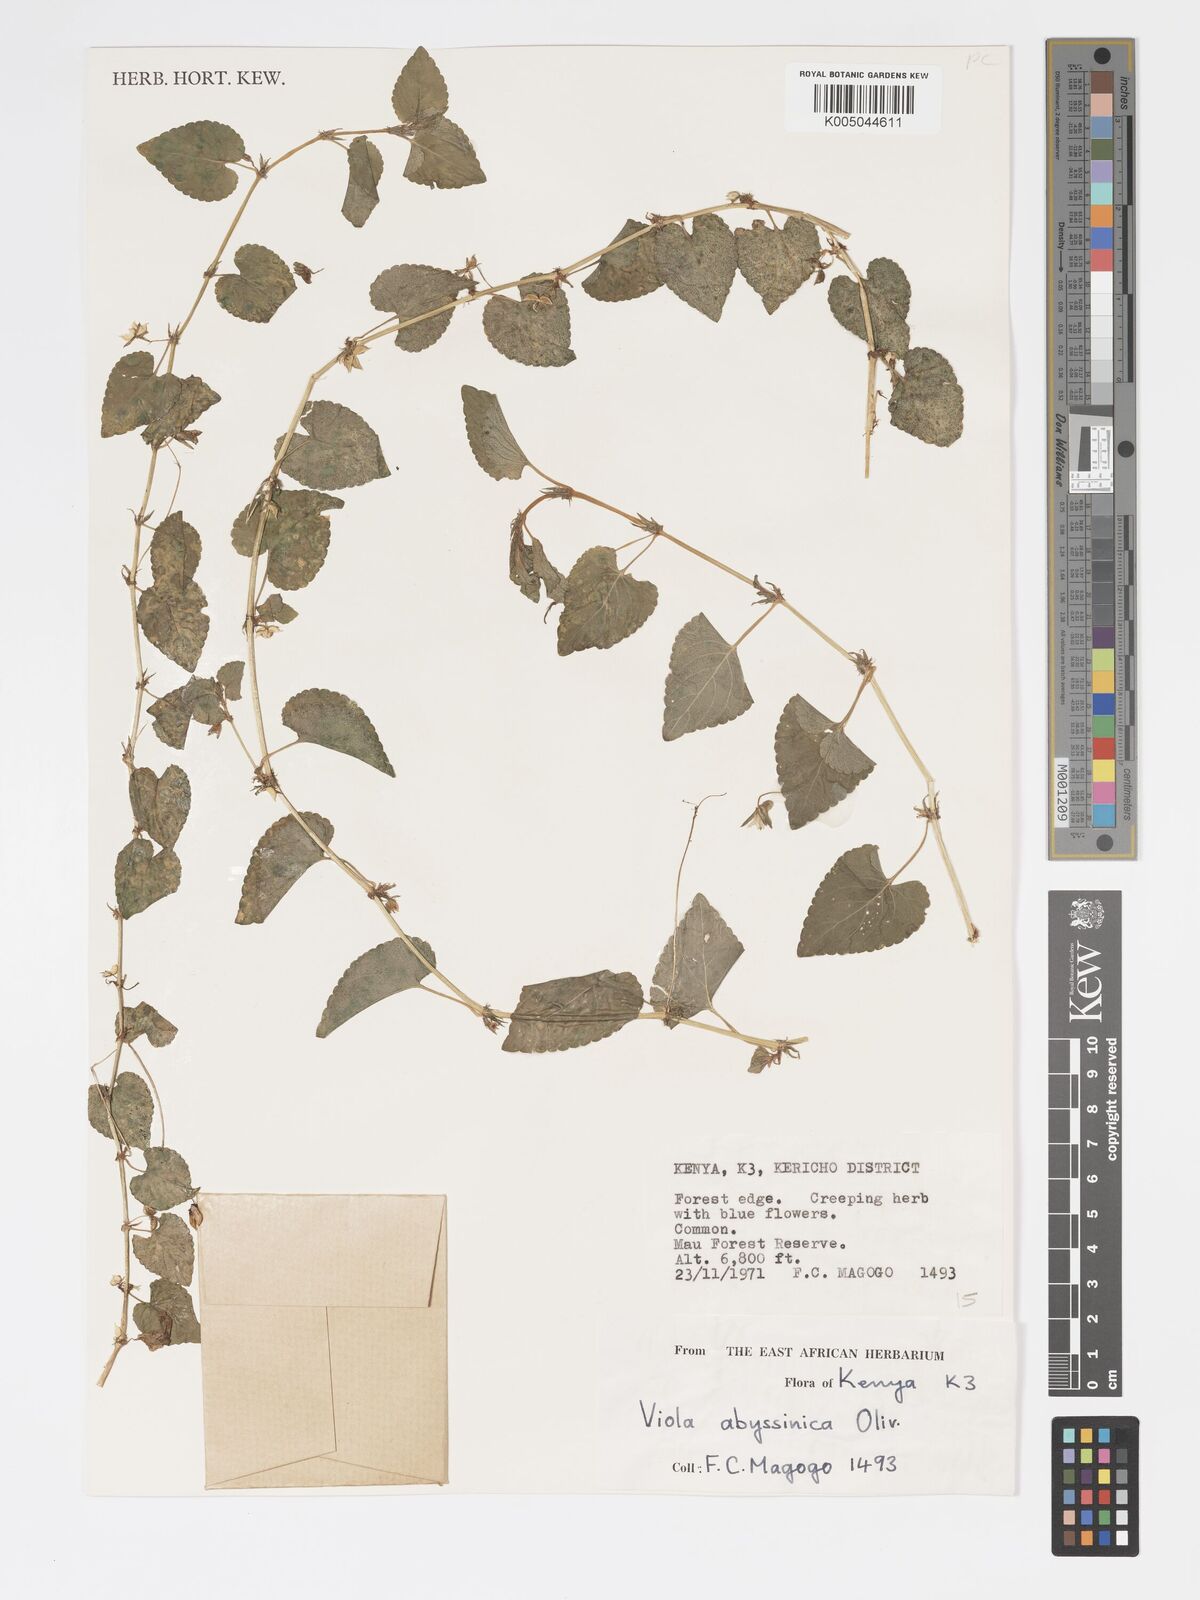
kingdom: Plantae
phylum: Tracheophyta
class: Magnoliopsida
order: Malpighiales
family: Violaceae
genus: Viola
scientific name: Viola abyssinica
